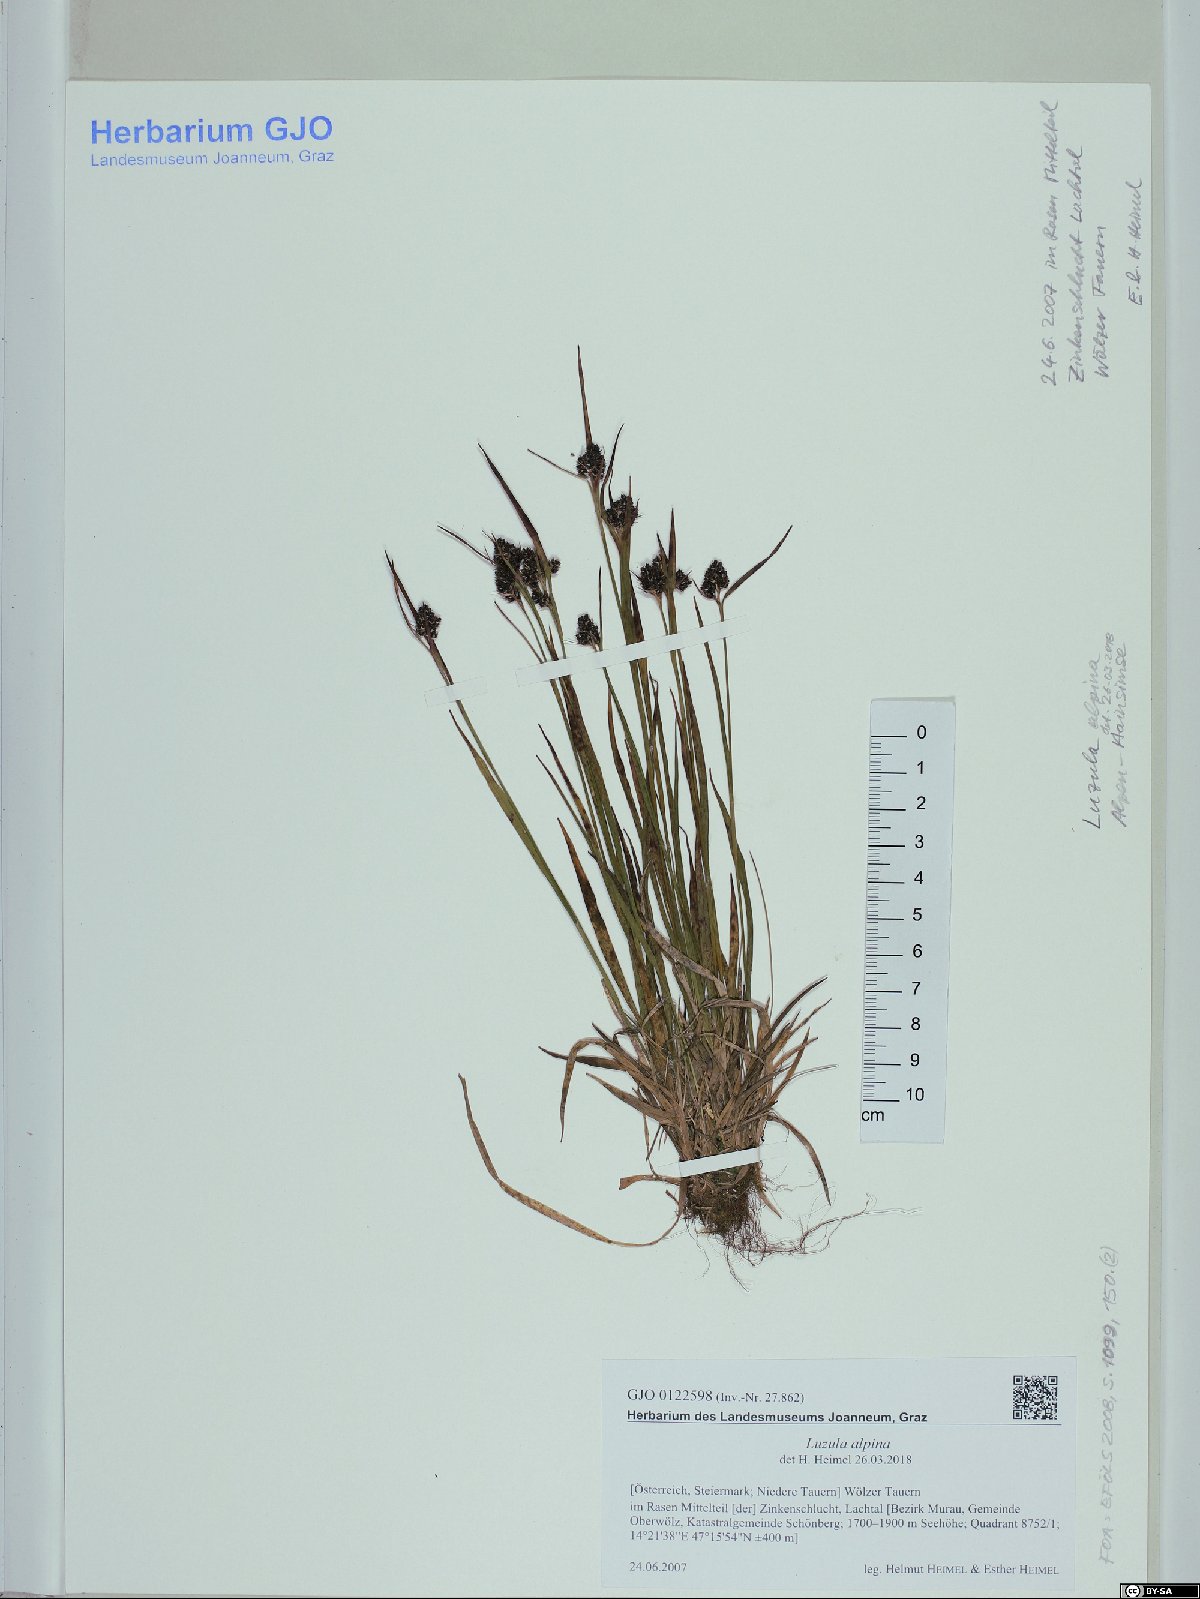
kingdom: Plantae
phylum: Tracheophyta
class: Liliopsida
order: Poales
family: Juncaceae
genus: Luzula
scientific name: Luzula alpina
